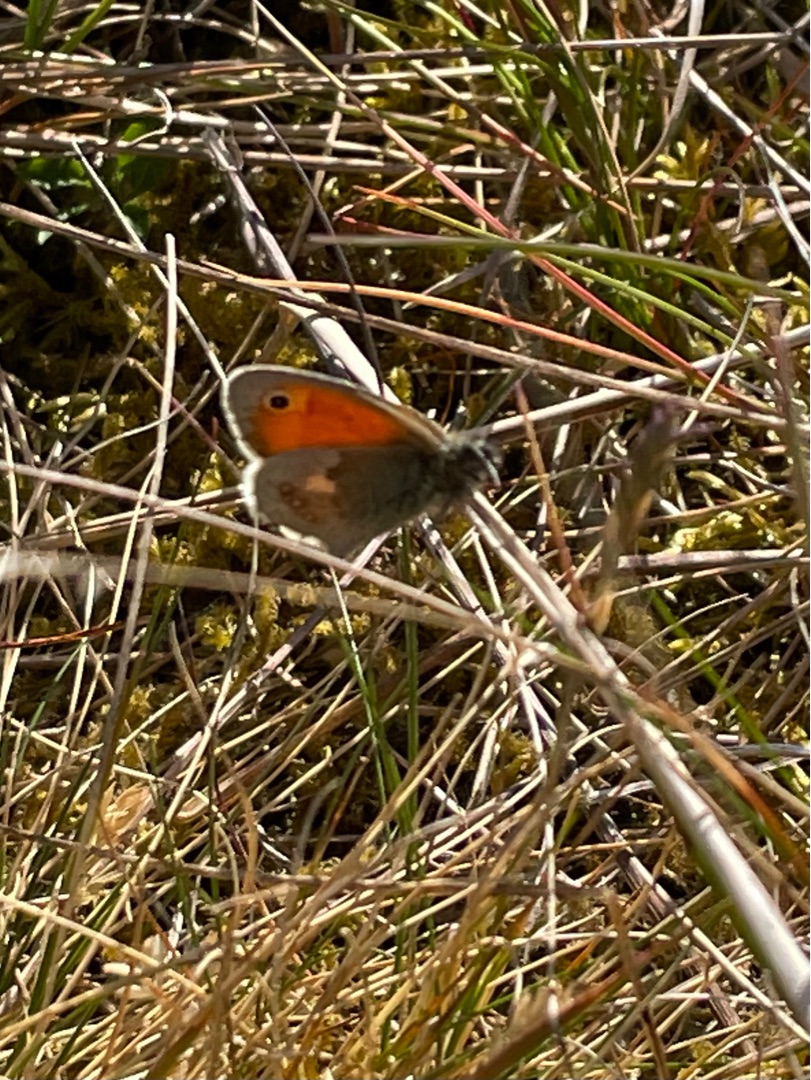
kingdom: Animalia
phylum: Arthropoda
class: Insecta
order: Lepidoptera
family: Nymphalidae
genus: Coenonympha
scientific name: Coenonympha pamphilus
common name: Okkergul randøje
